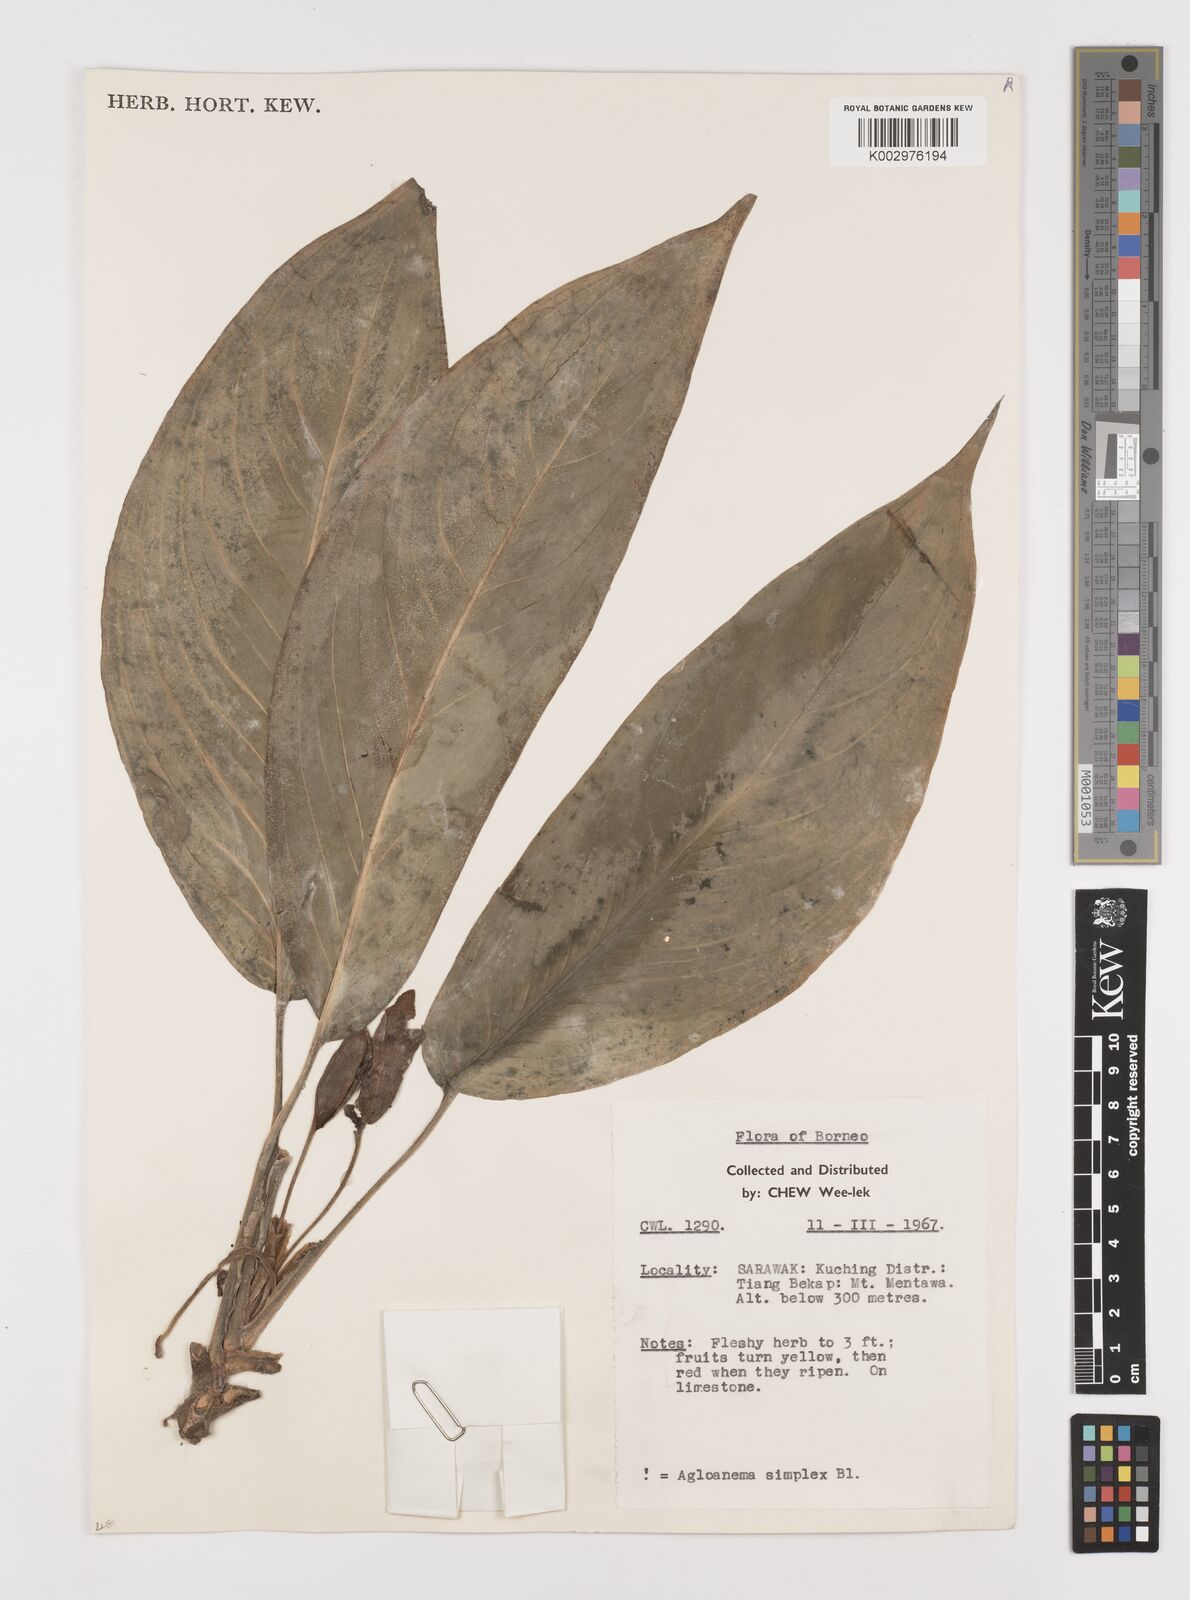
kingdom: Plantae
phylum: Tracheophyta
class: Liliopsida
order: Alismatales
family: Araceae
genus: Aglaonema
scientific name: Aglaonema simplex
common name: Malayan-sword
